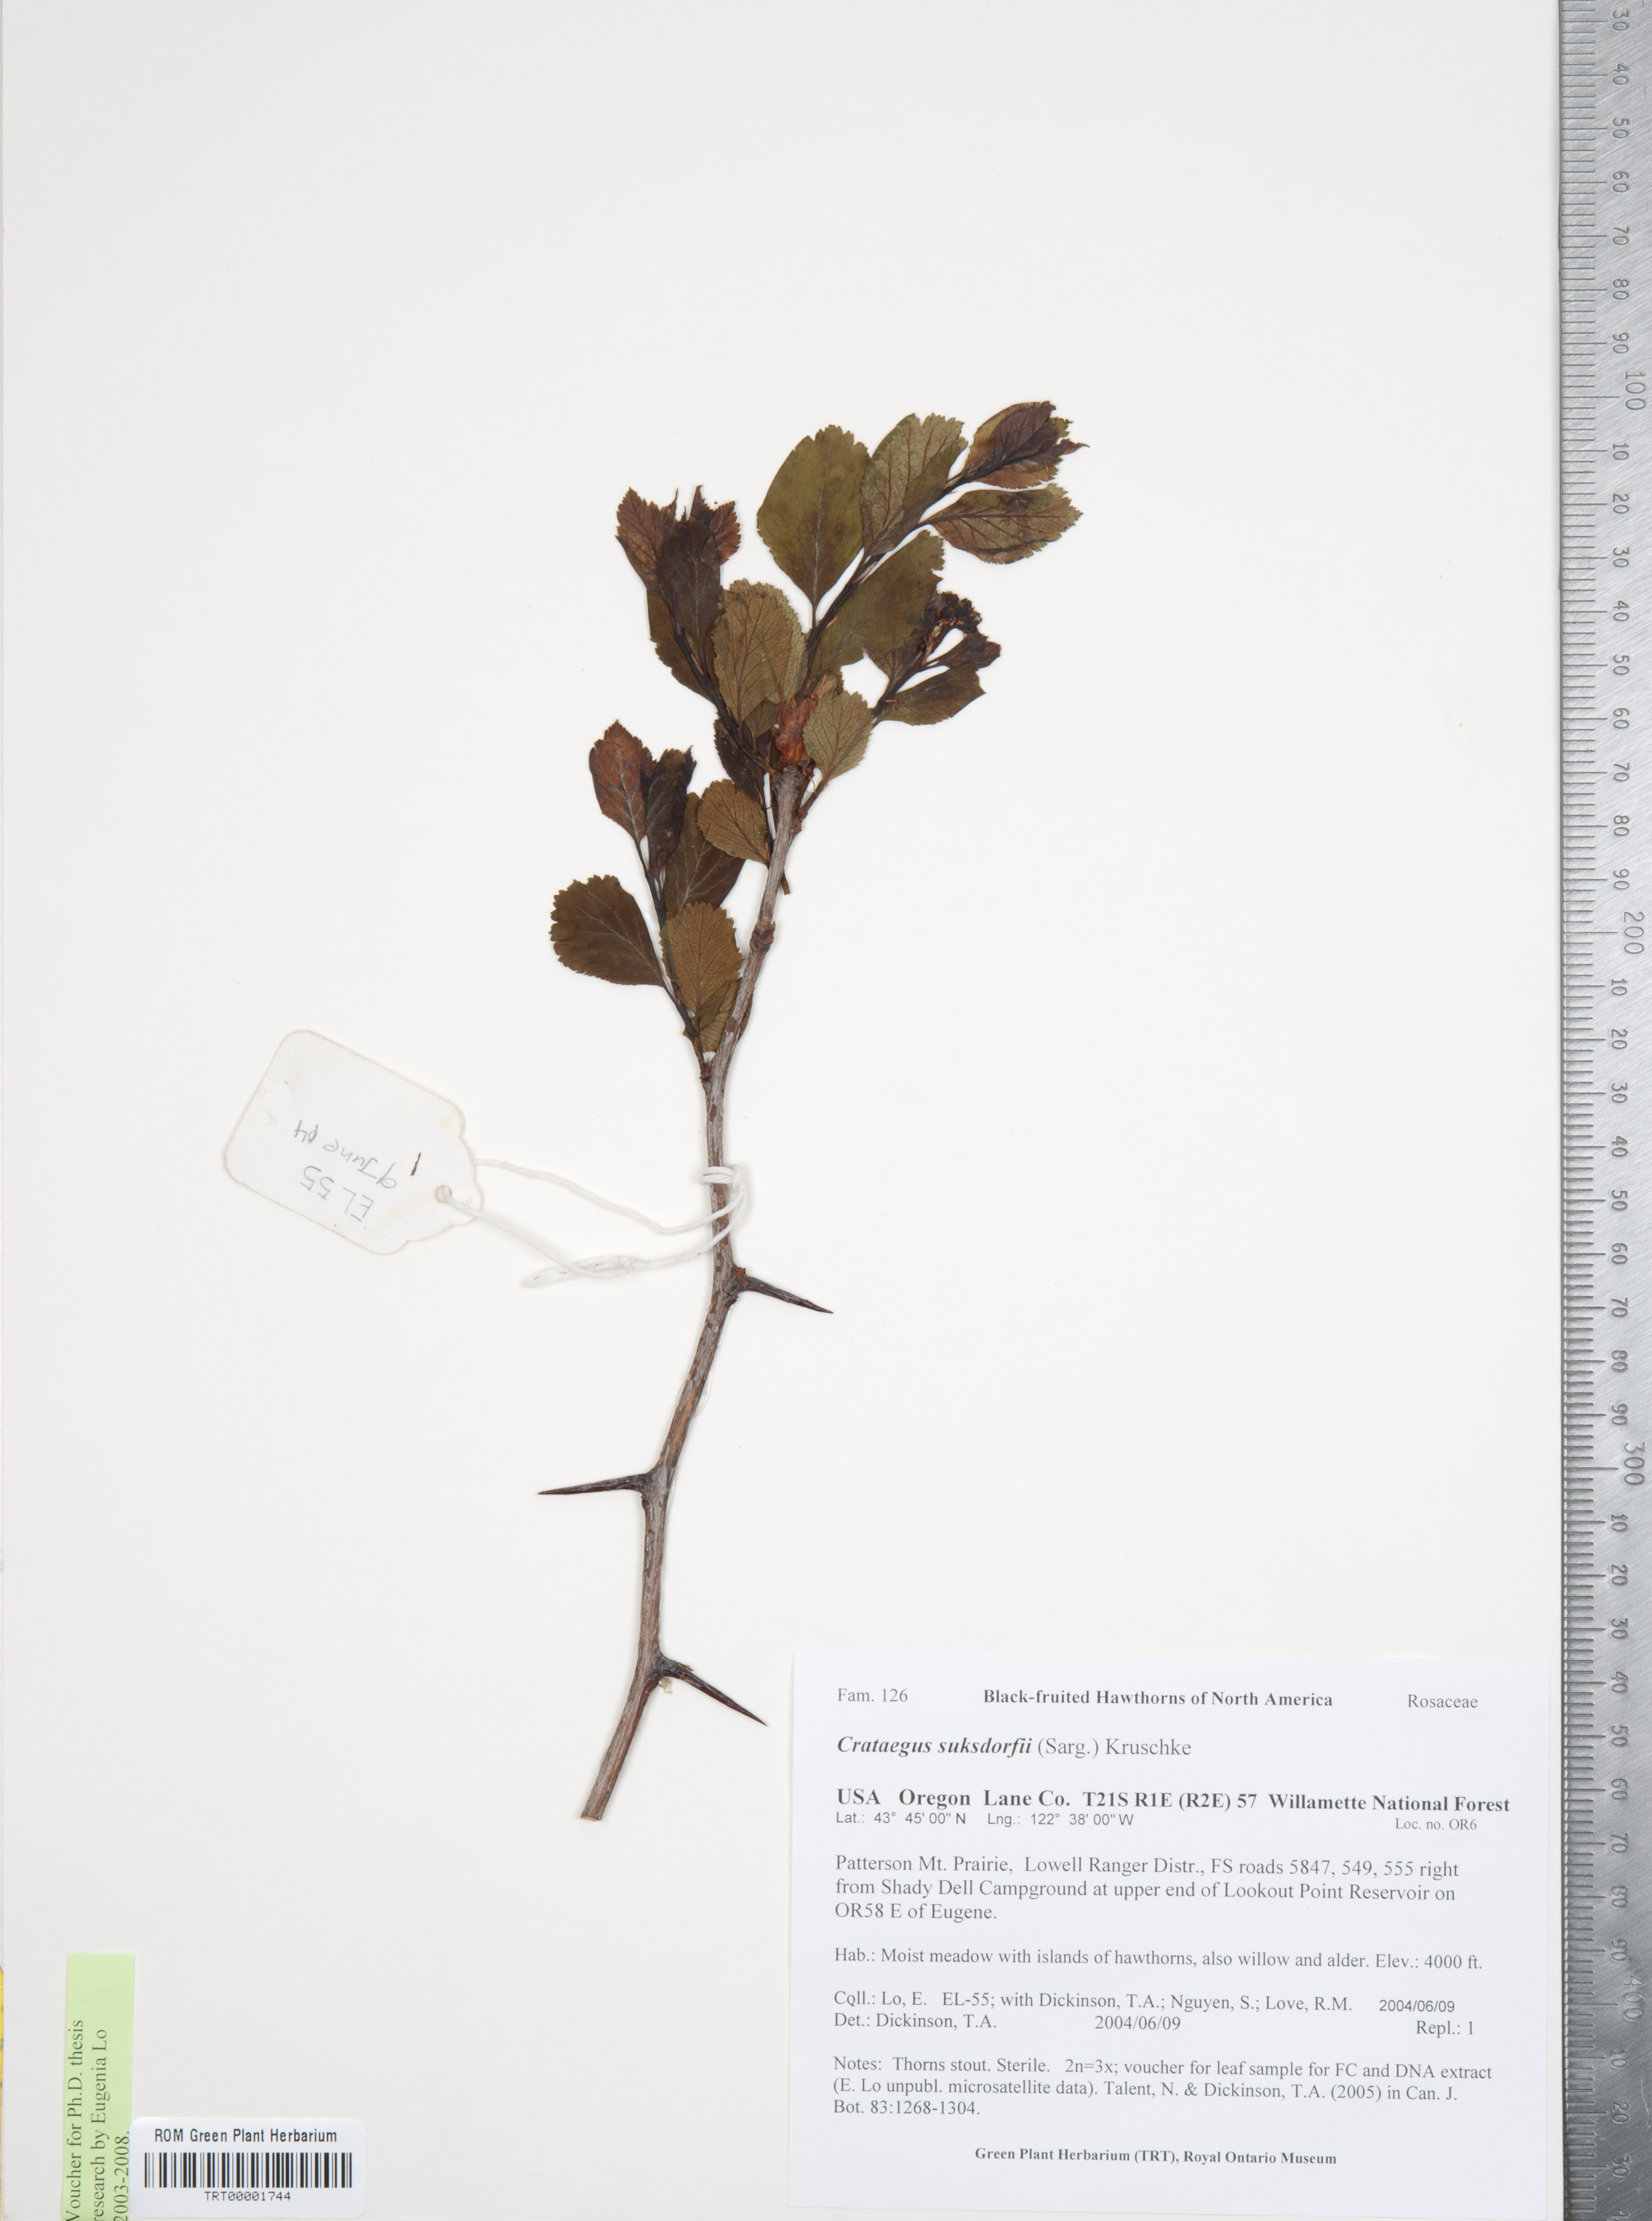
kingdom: Plantae
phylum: Tracheophyta
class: Magnoliopsida
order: Rosales
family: Rosaceae
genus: Crataegus
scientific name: Crataegus gaylussacia
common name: Huckleberry hawthorn
